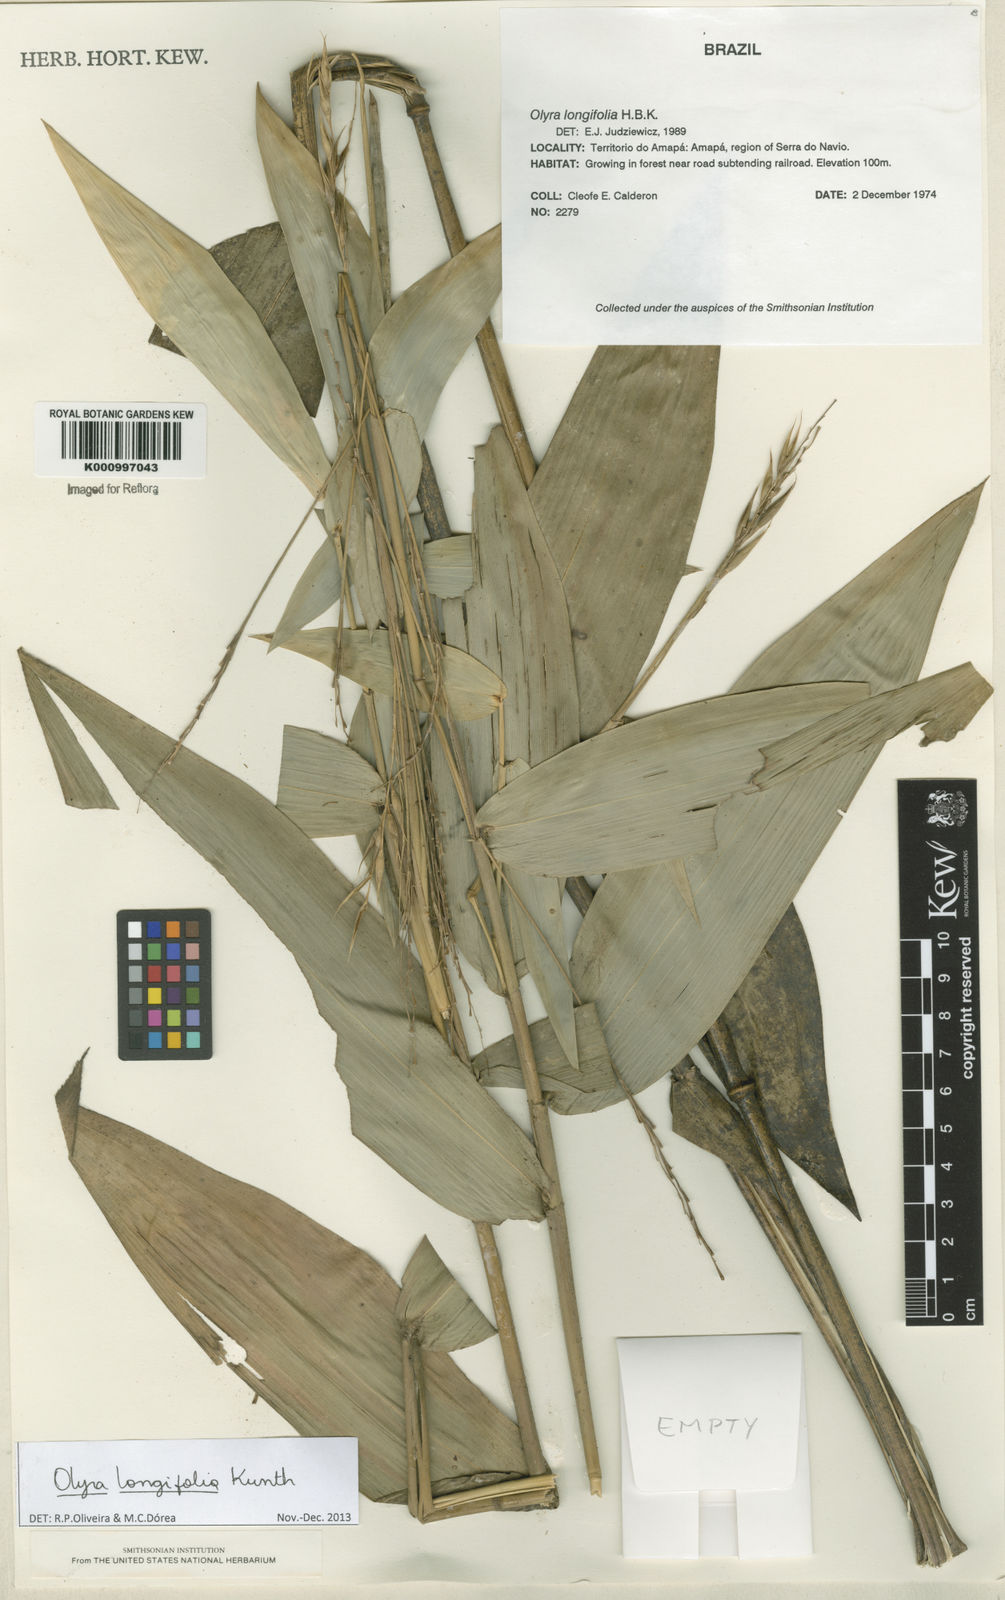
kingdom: Plantae
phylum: Tracheophyta
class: Liliopsida
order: Poales
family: Poaceae
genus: Olyra
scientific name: Olyra longifolia
